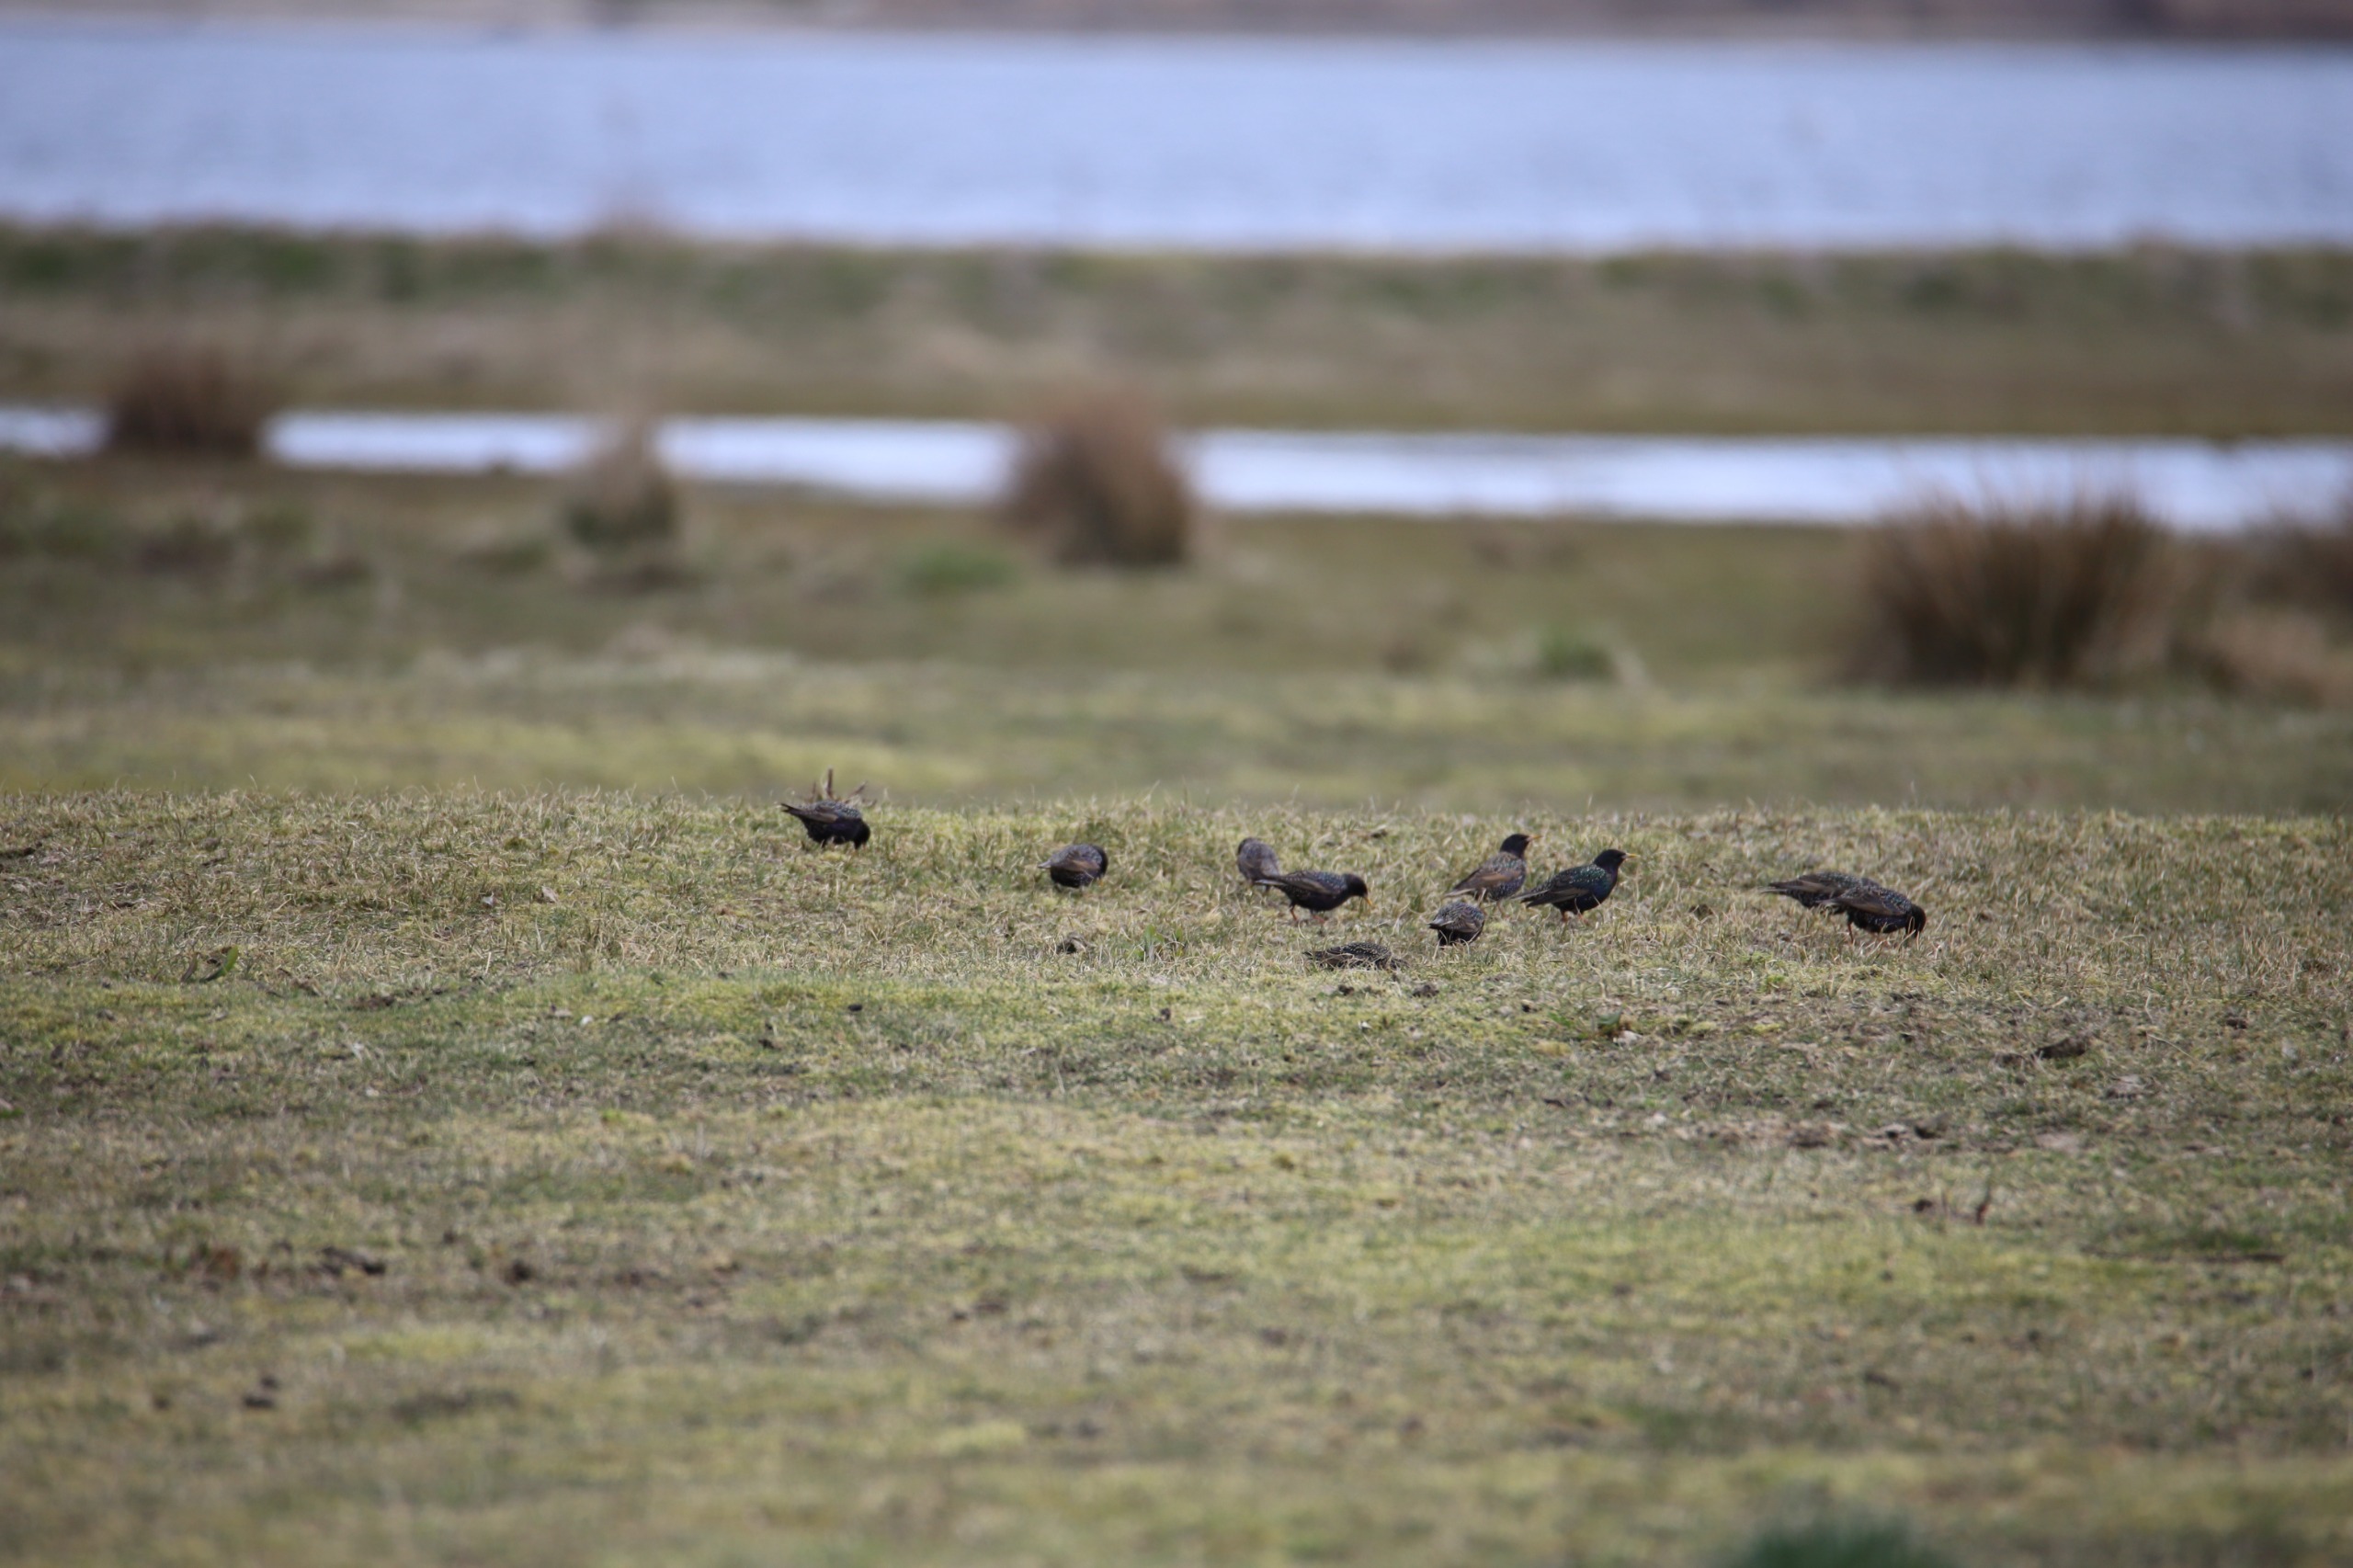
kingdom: Animalia
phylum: Chordata
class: Aves
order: Passeriformes
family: Sturnidae
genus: Sturnus
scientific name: Sturnus vulgaris
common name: Stær
